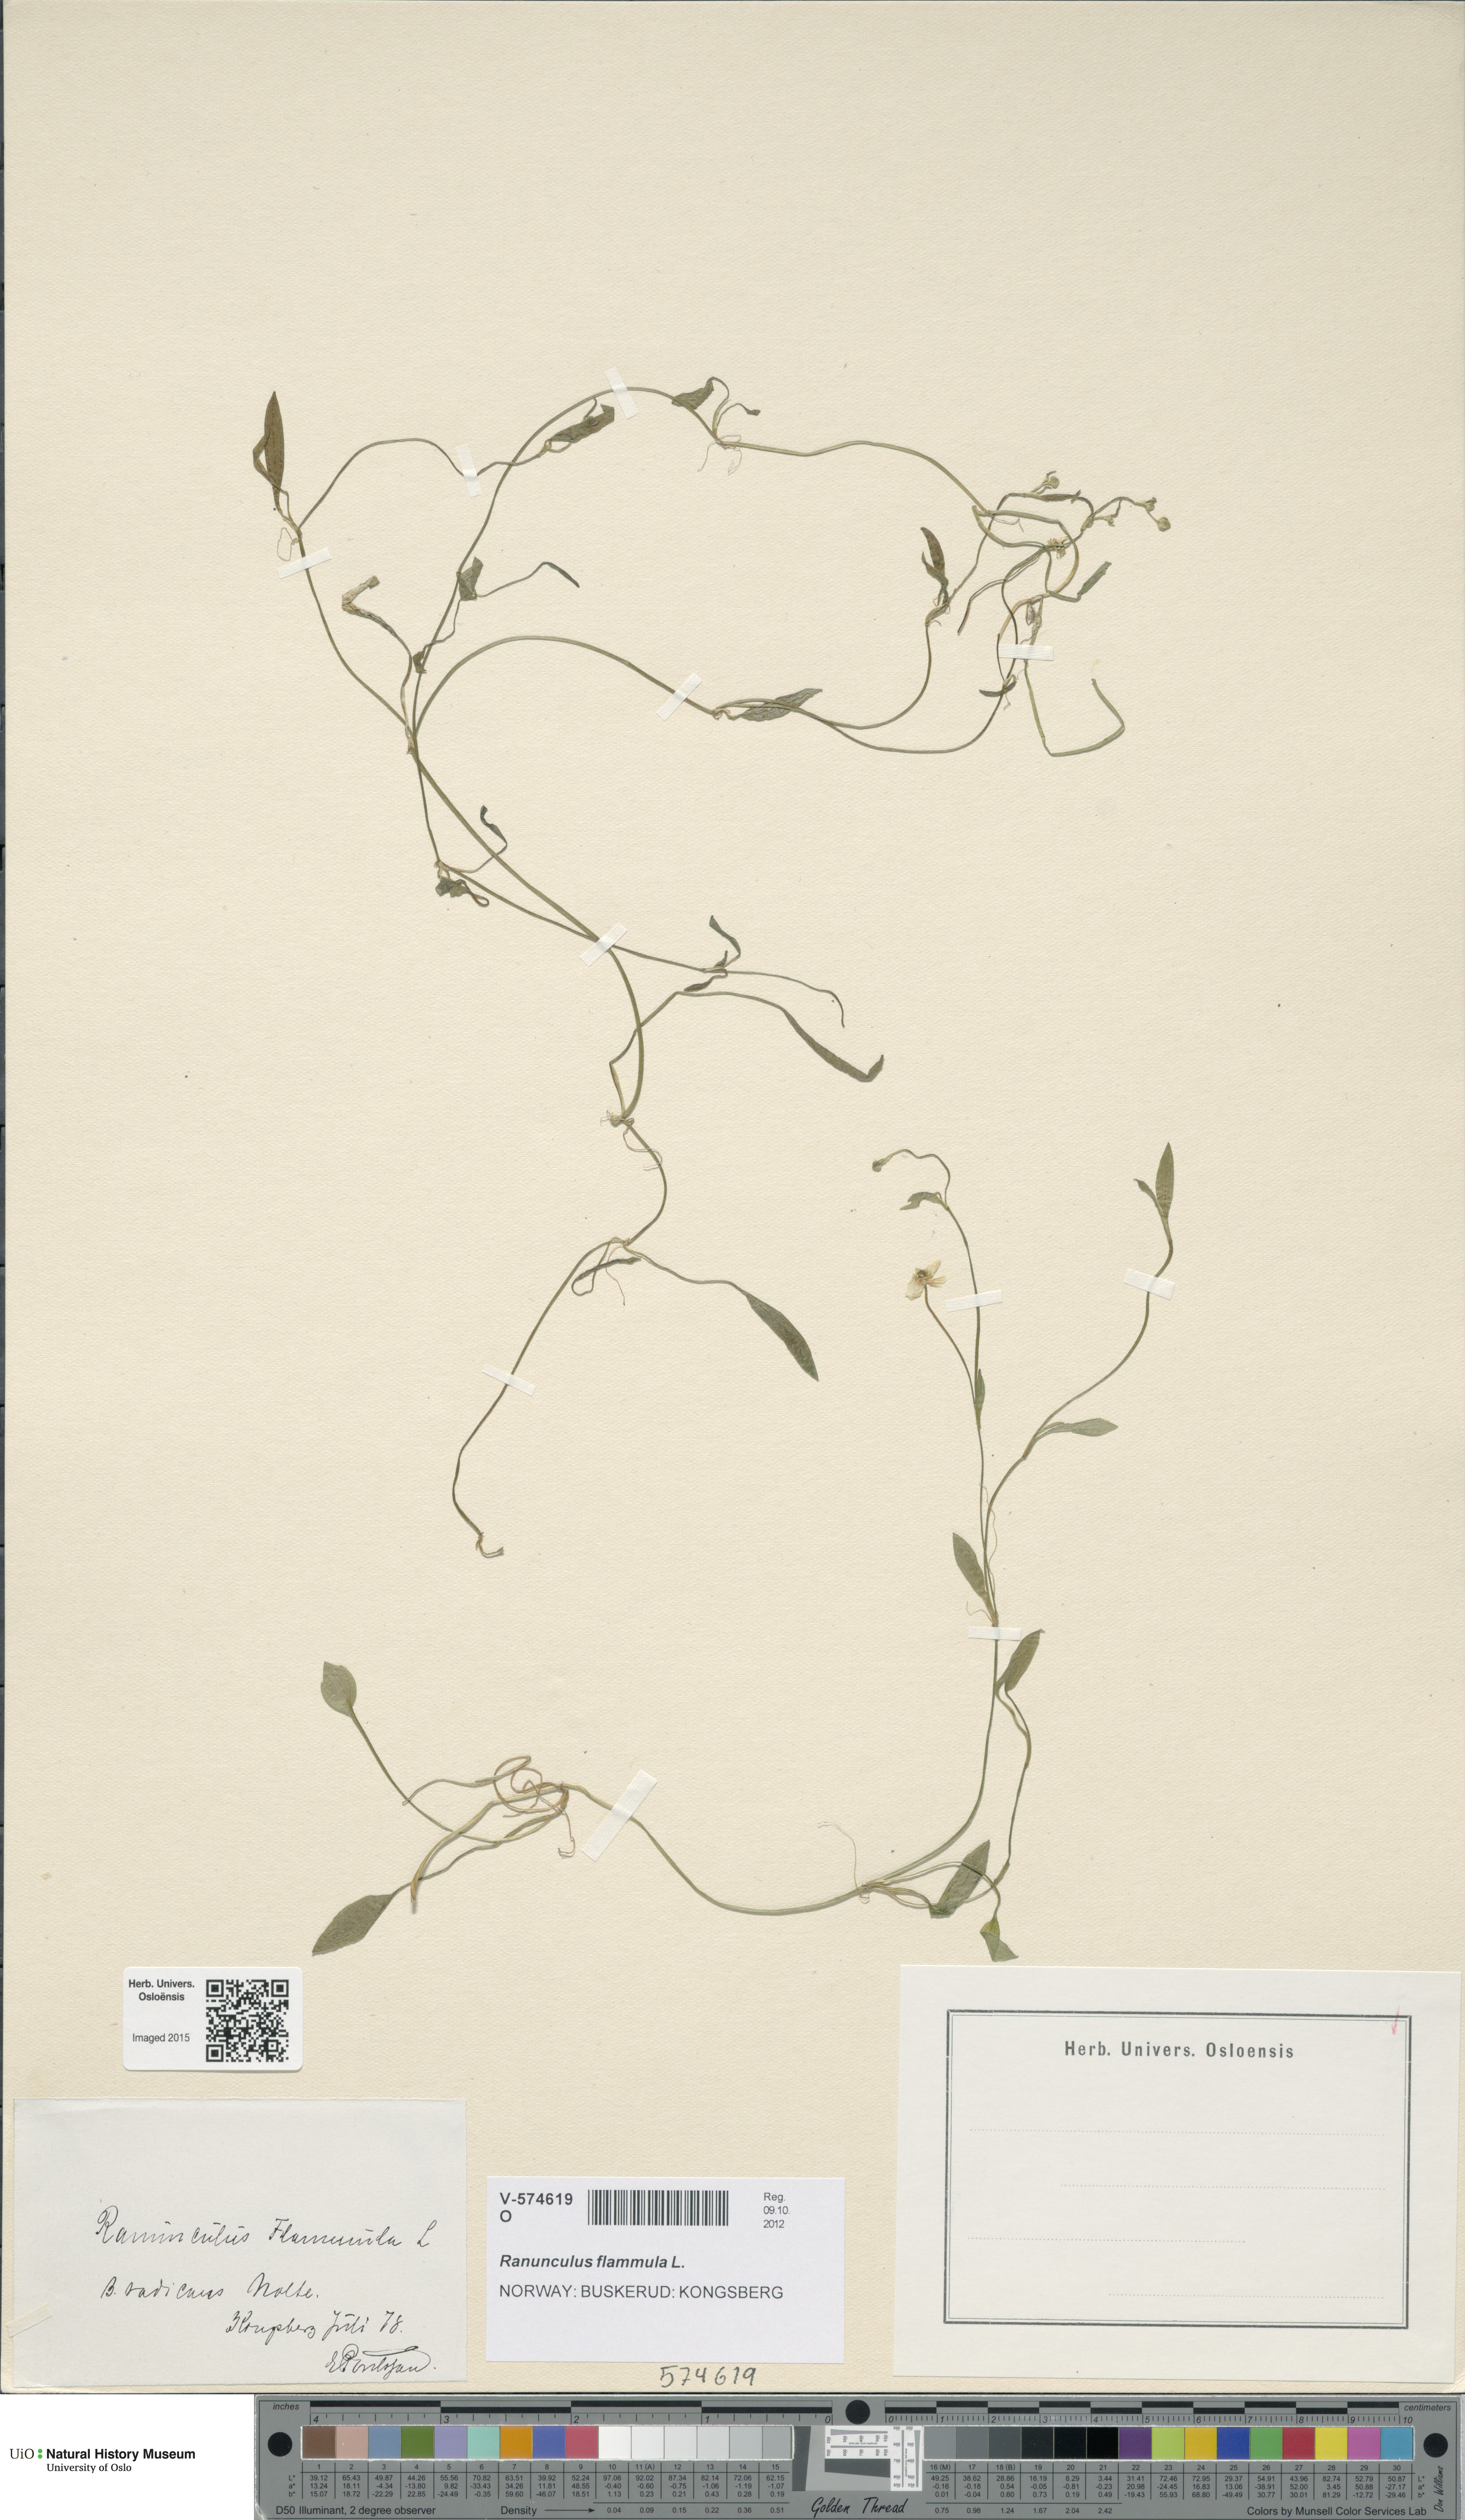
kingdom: Plantae
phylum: Tracheophyta
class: Magnoliopsida
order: Ranunculales
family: Ranunculaceae
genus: Ranunculus
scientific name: Ranunculus flammula
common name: Lesser spearwort
